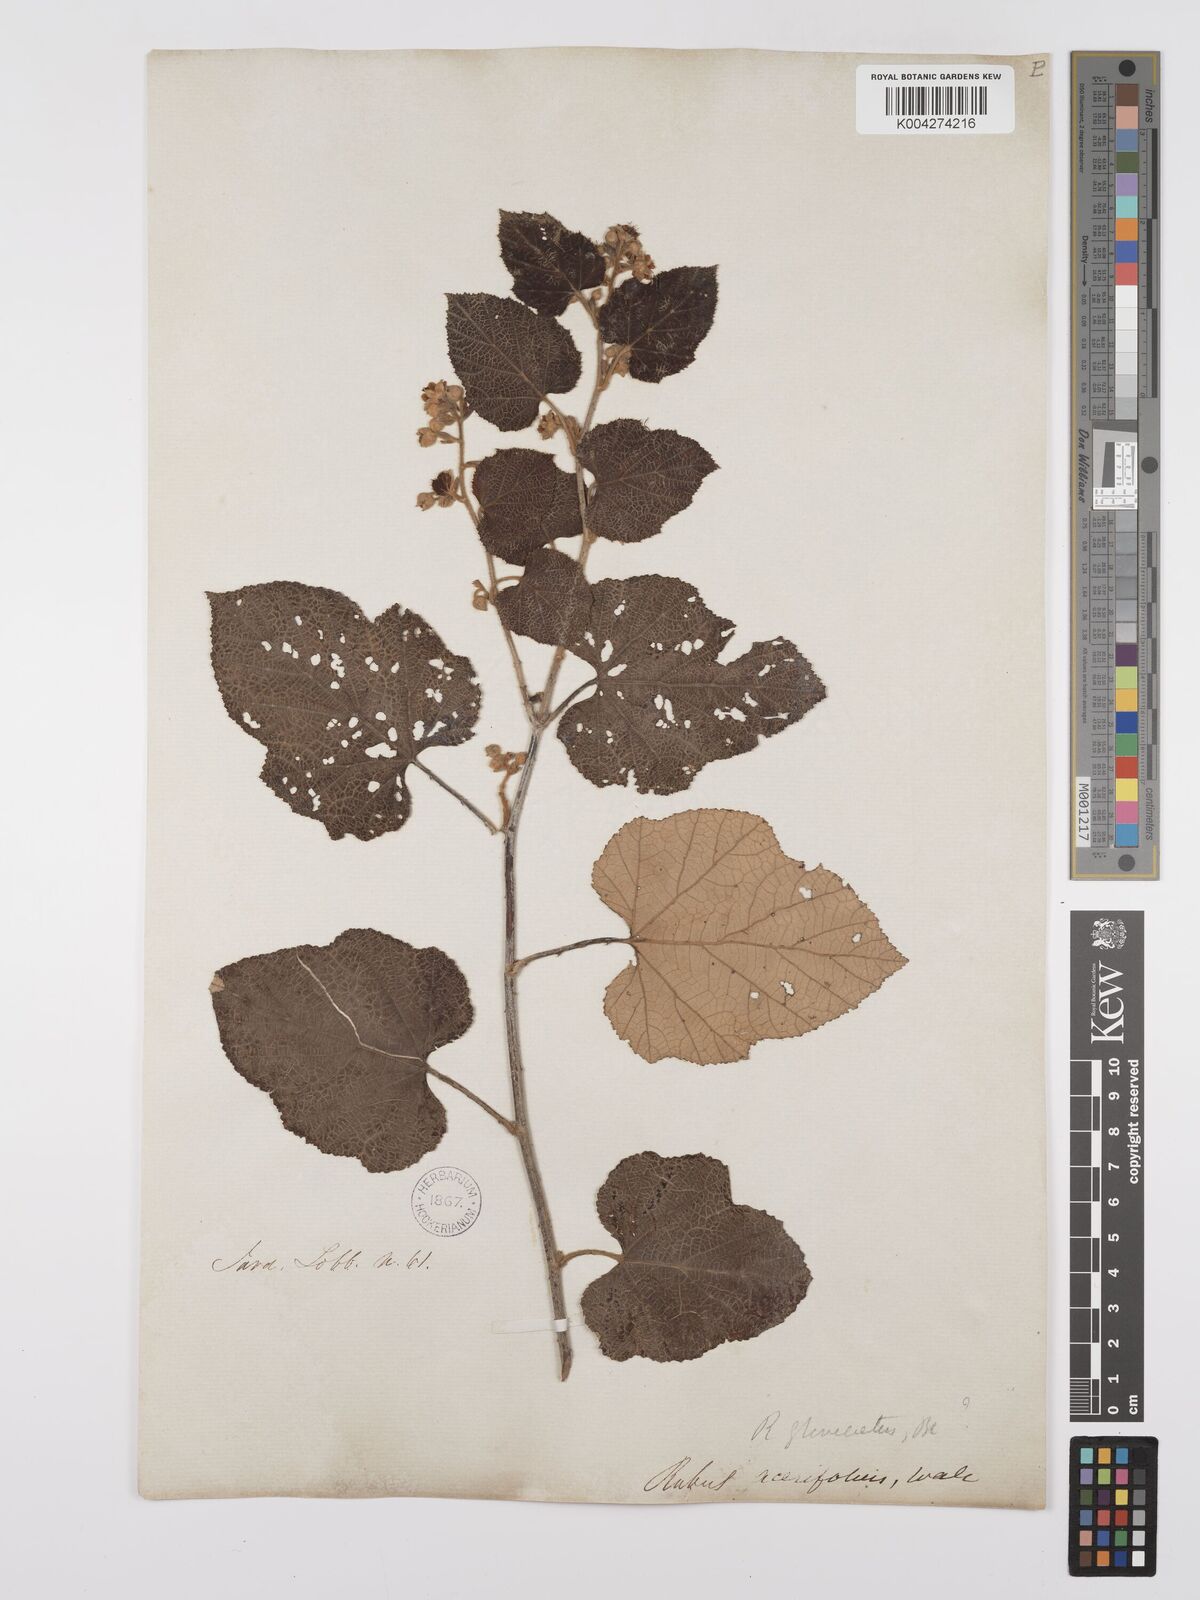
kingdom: Plantae
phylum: Tracheophyta
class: Magnoliopsida
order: Rosales
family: Rosaceae
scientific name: Rosaceae
